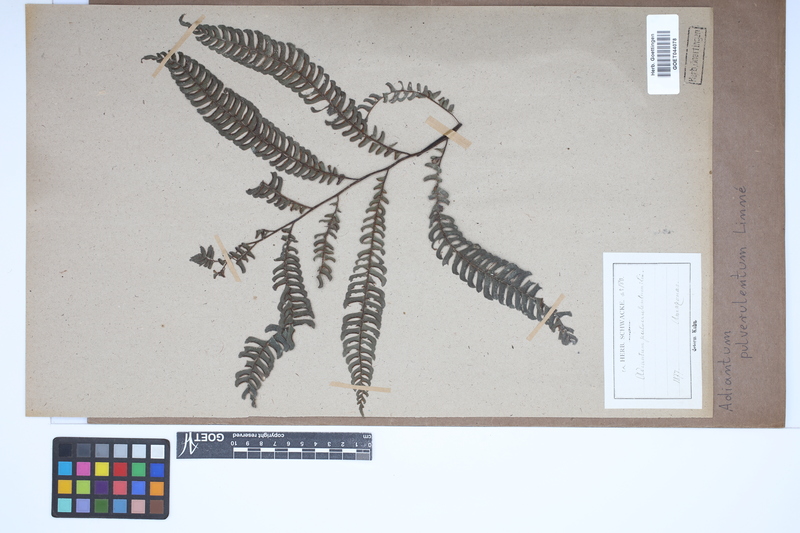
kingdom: Plantae
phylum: Tracheophyta
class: Polypodiopsida
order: Polypodiales
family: Pteridaceae
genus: Adiantum
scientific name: Adiantum pulverulentum
